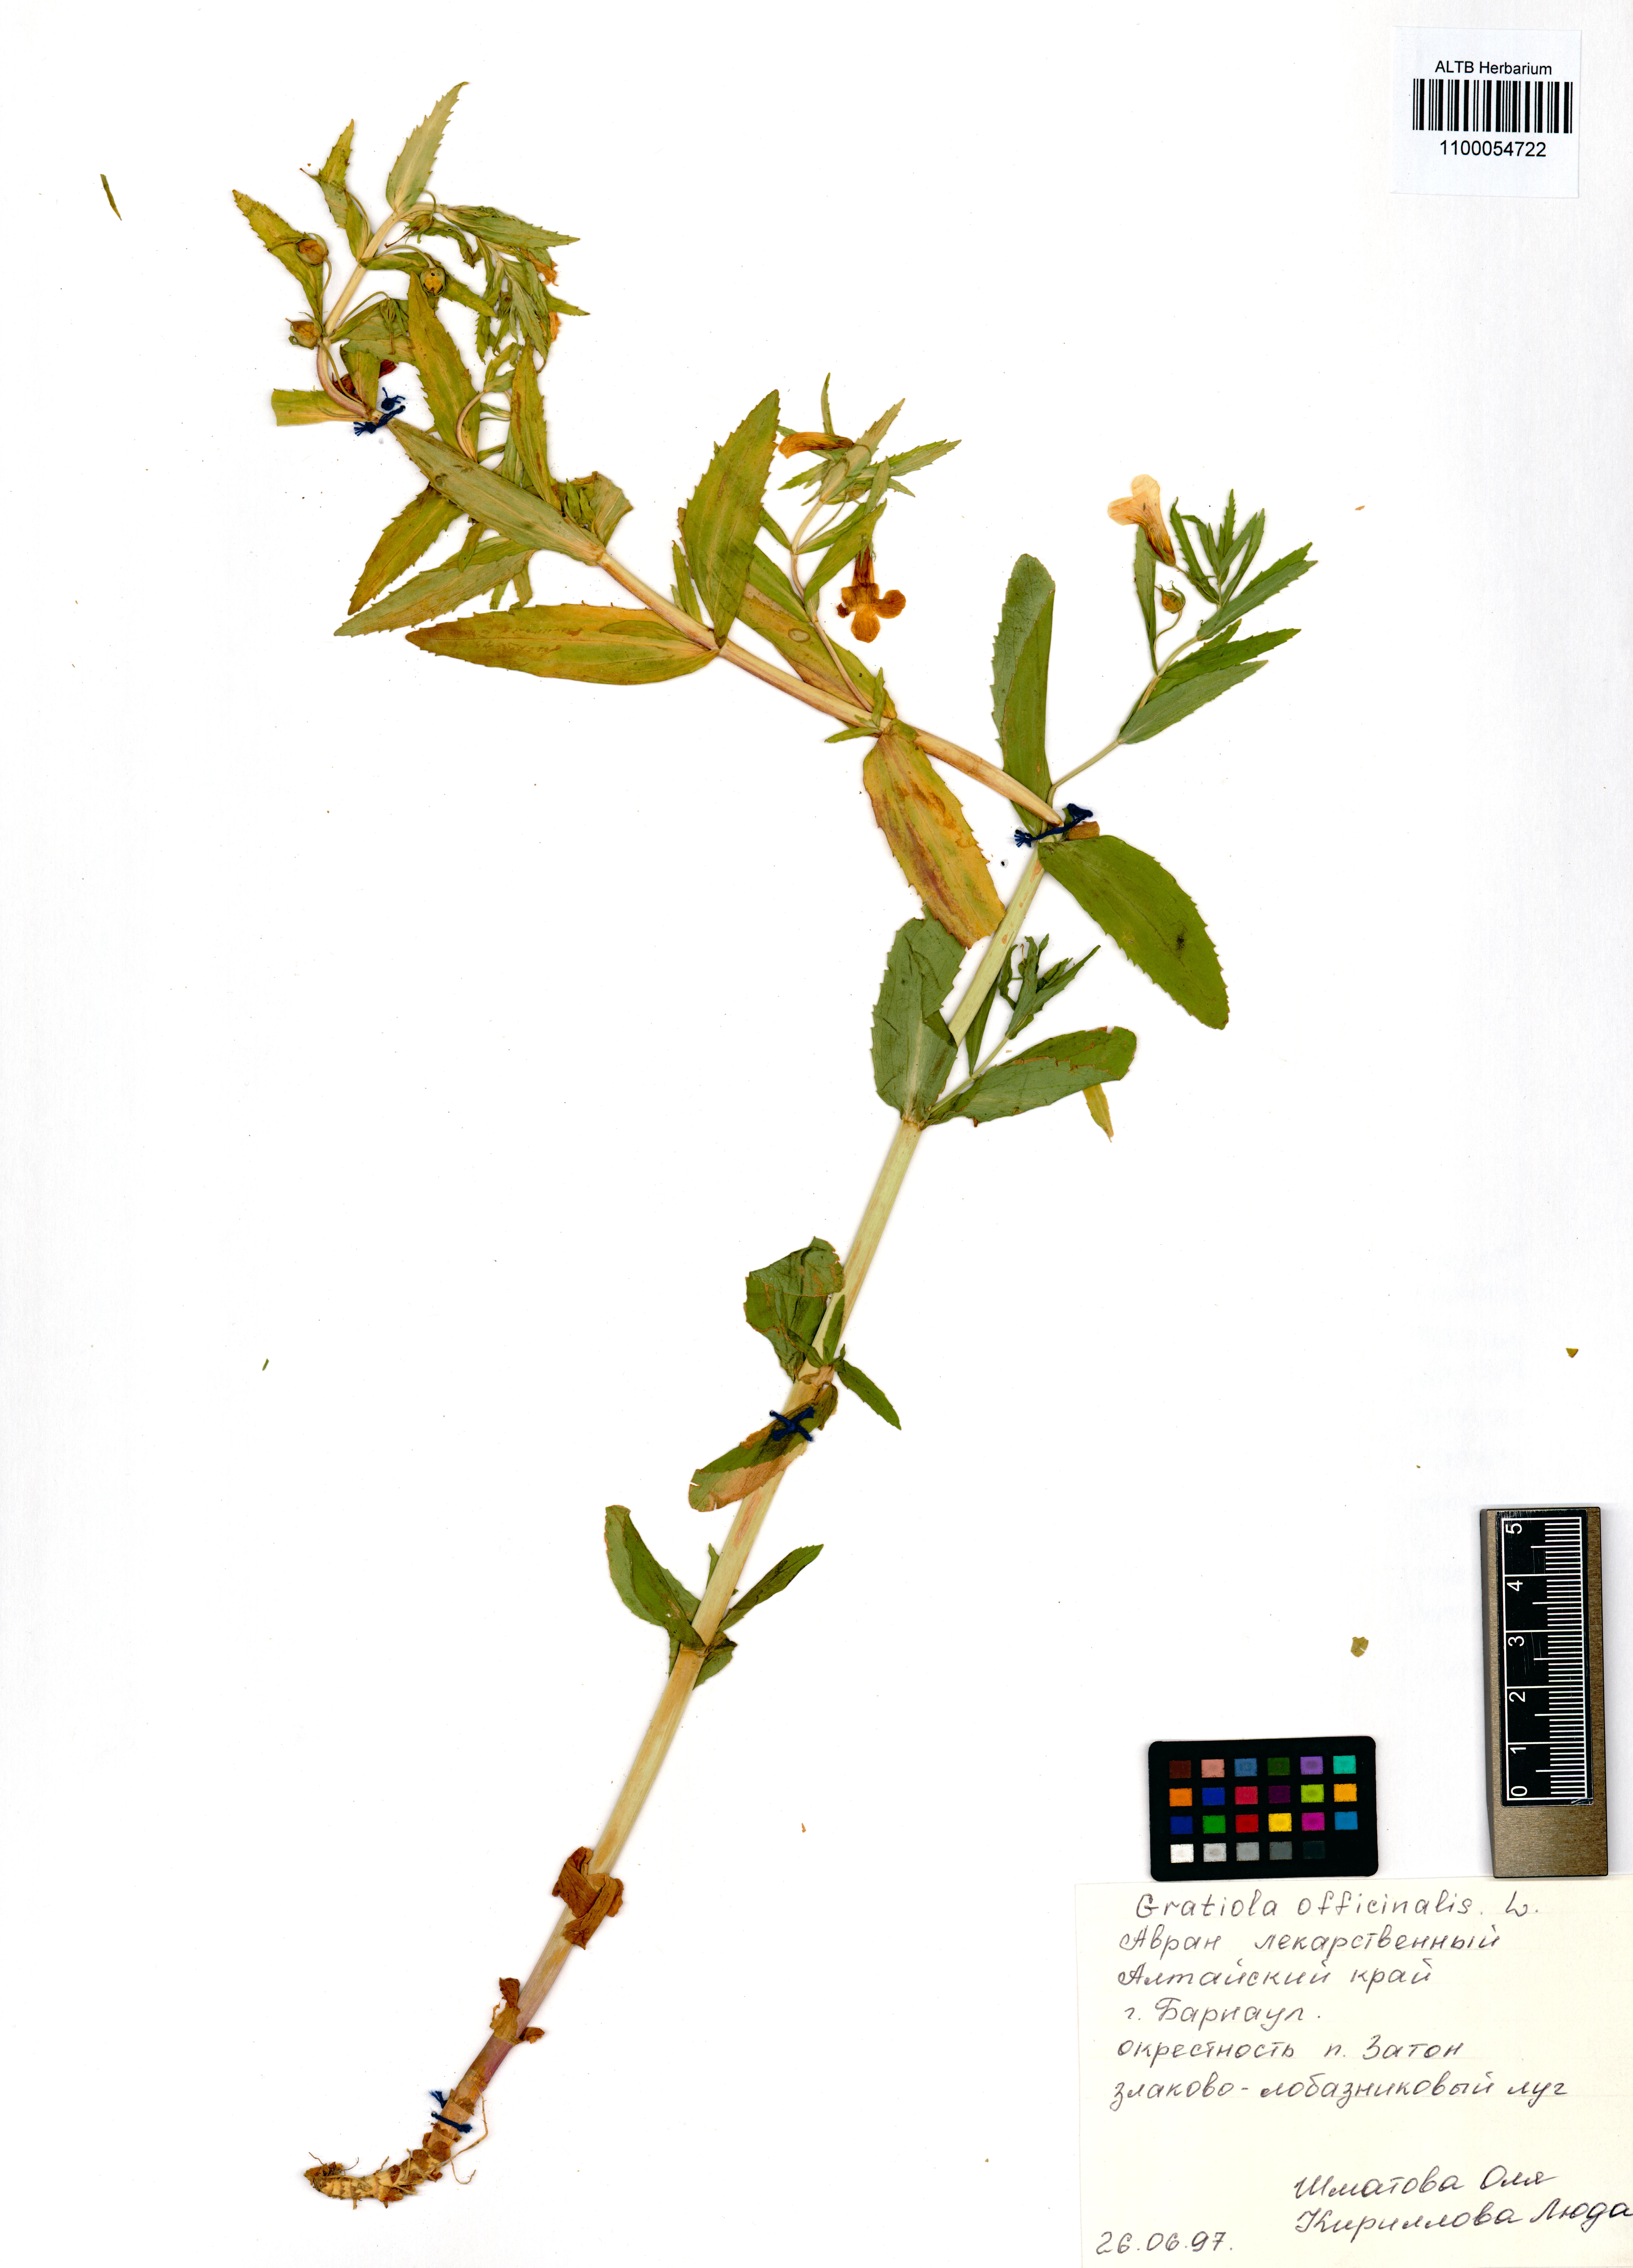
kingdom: Plantae
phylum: Tracheophyta
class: Magnoliopsida
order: Lamiales
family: Plantaginaceae
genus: Gratiola
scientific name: Gratiola officinalis
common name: Gratiola
